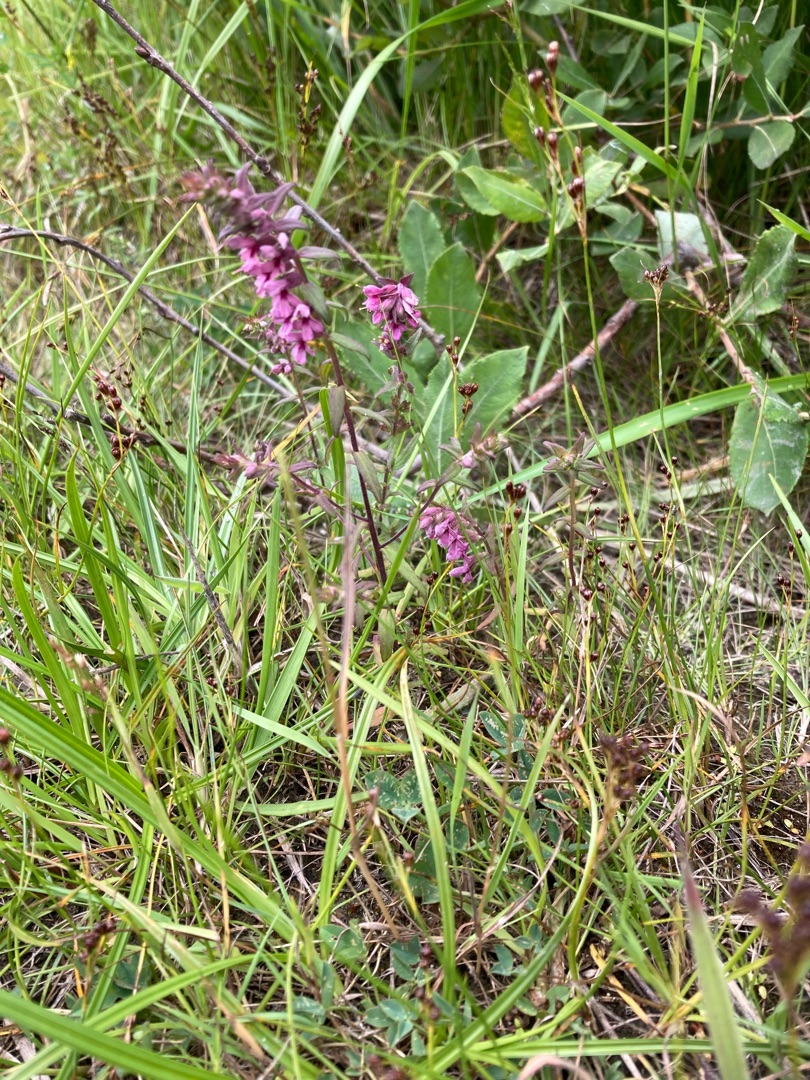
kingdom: Plantae
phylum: Tracheophyta
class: Magnoliopsida
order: Lamiales
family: Orobanchaceae
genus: Odontites
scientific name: Odontites vulgaris
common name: Høst-rødtop
